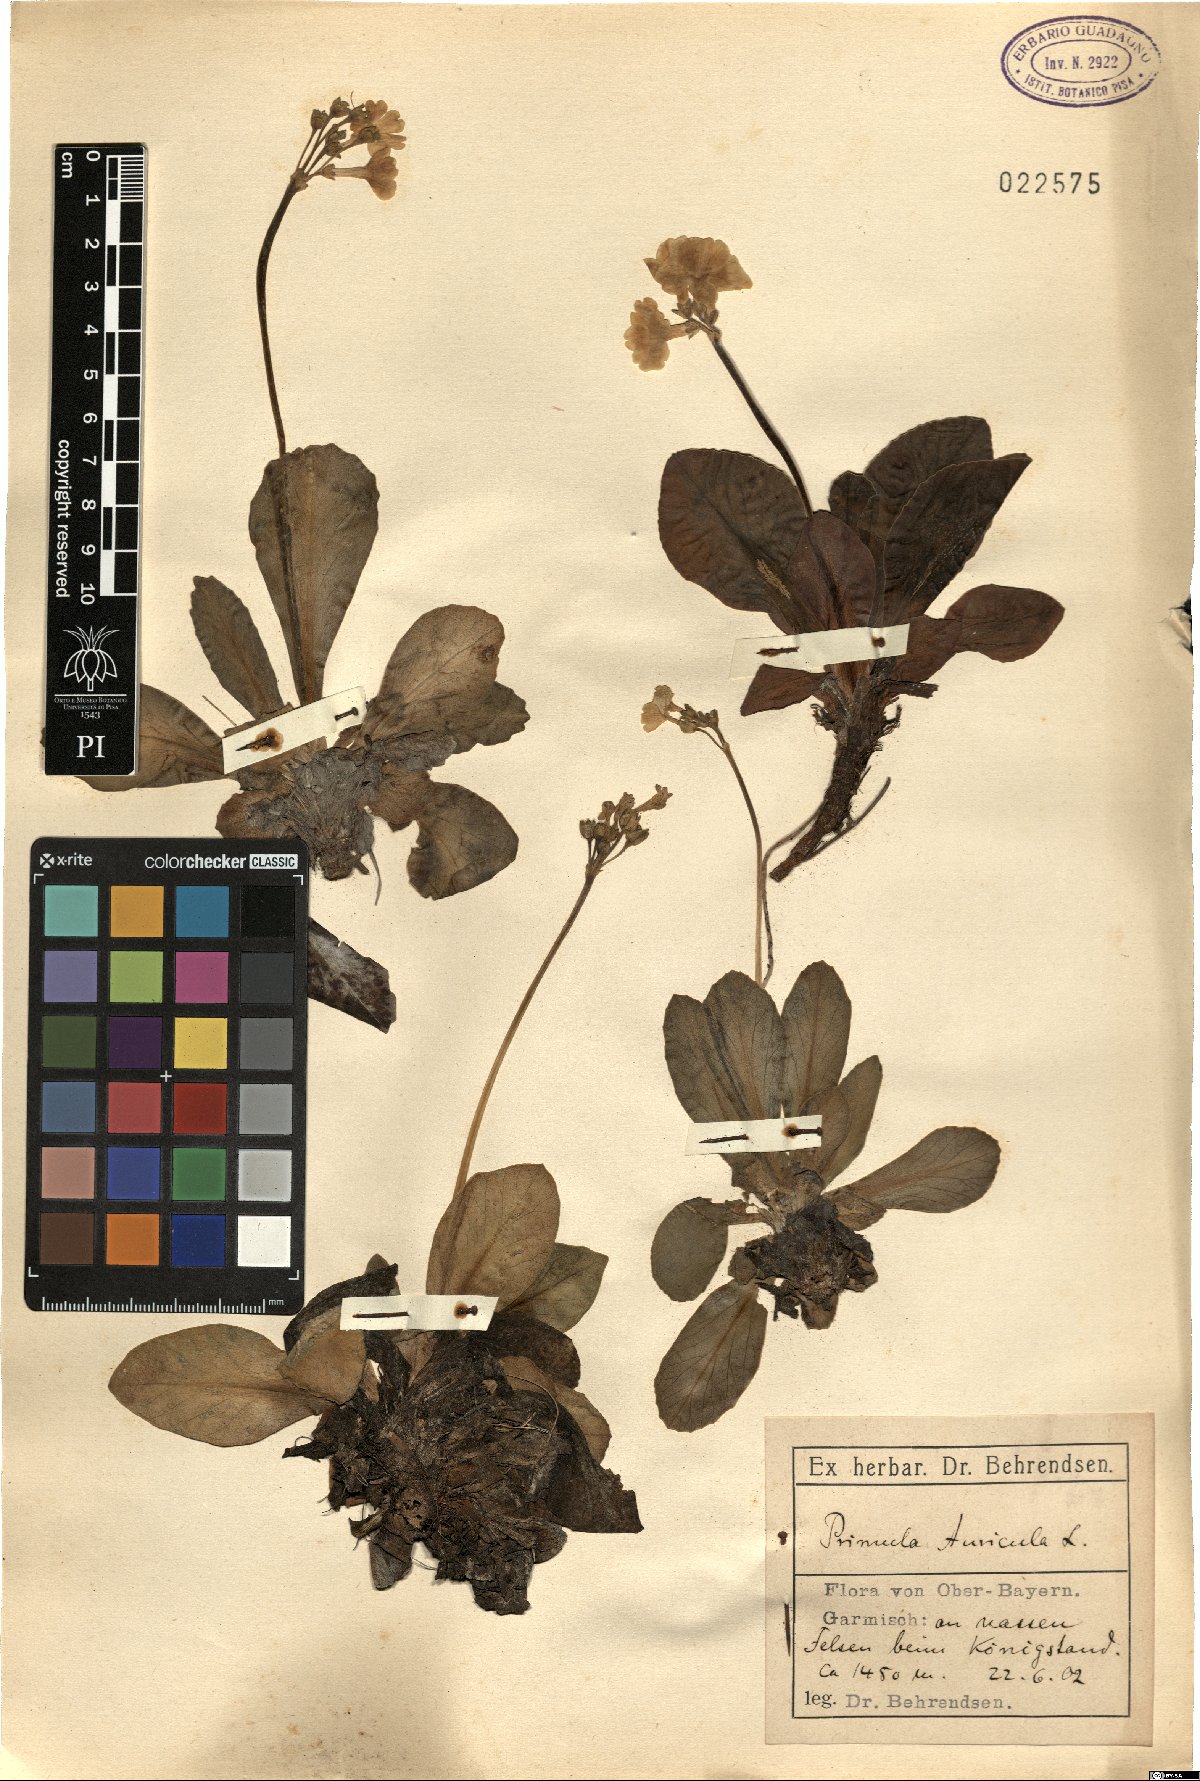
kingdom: Plantae
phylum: Tracheophyta
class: Magnoliopsida
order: Ericales
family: Primulaceae
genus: Primula
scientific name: Primula auricula
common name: Auricula
